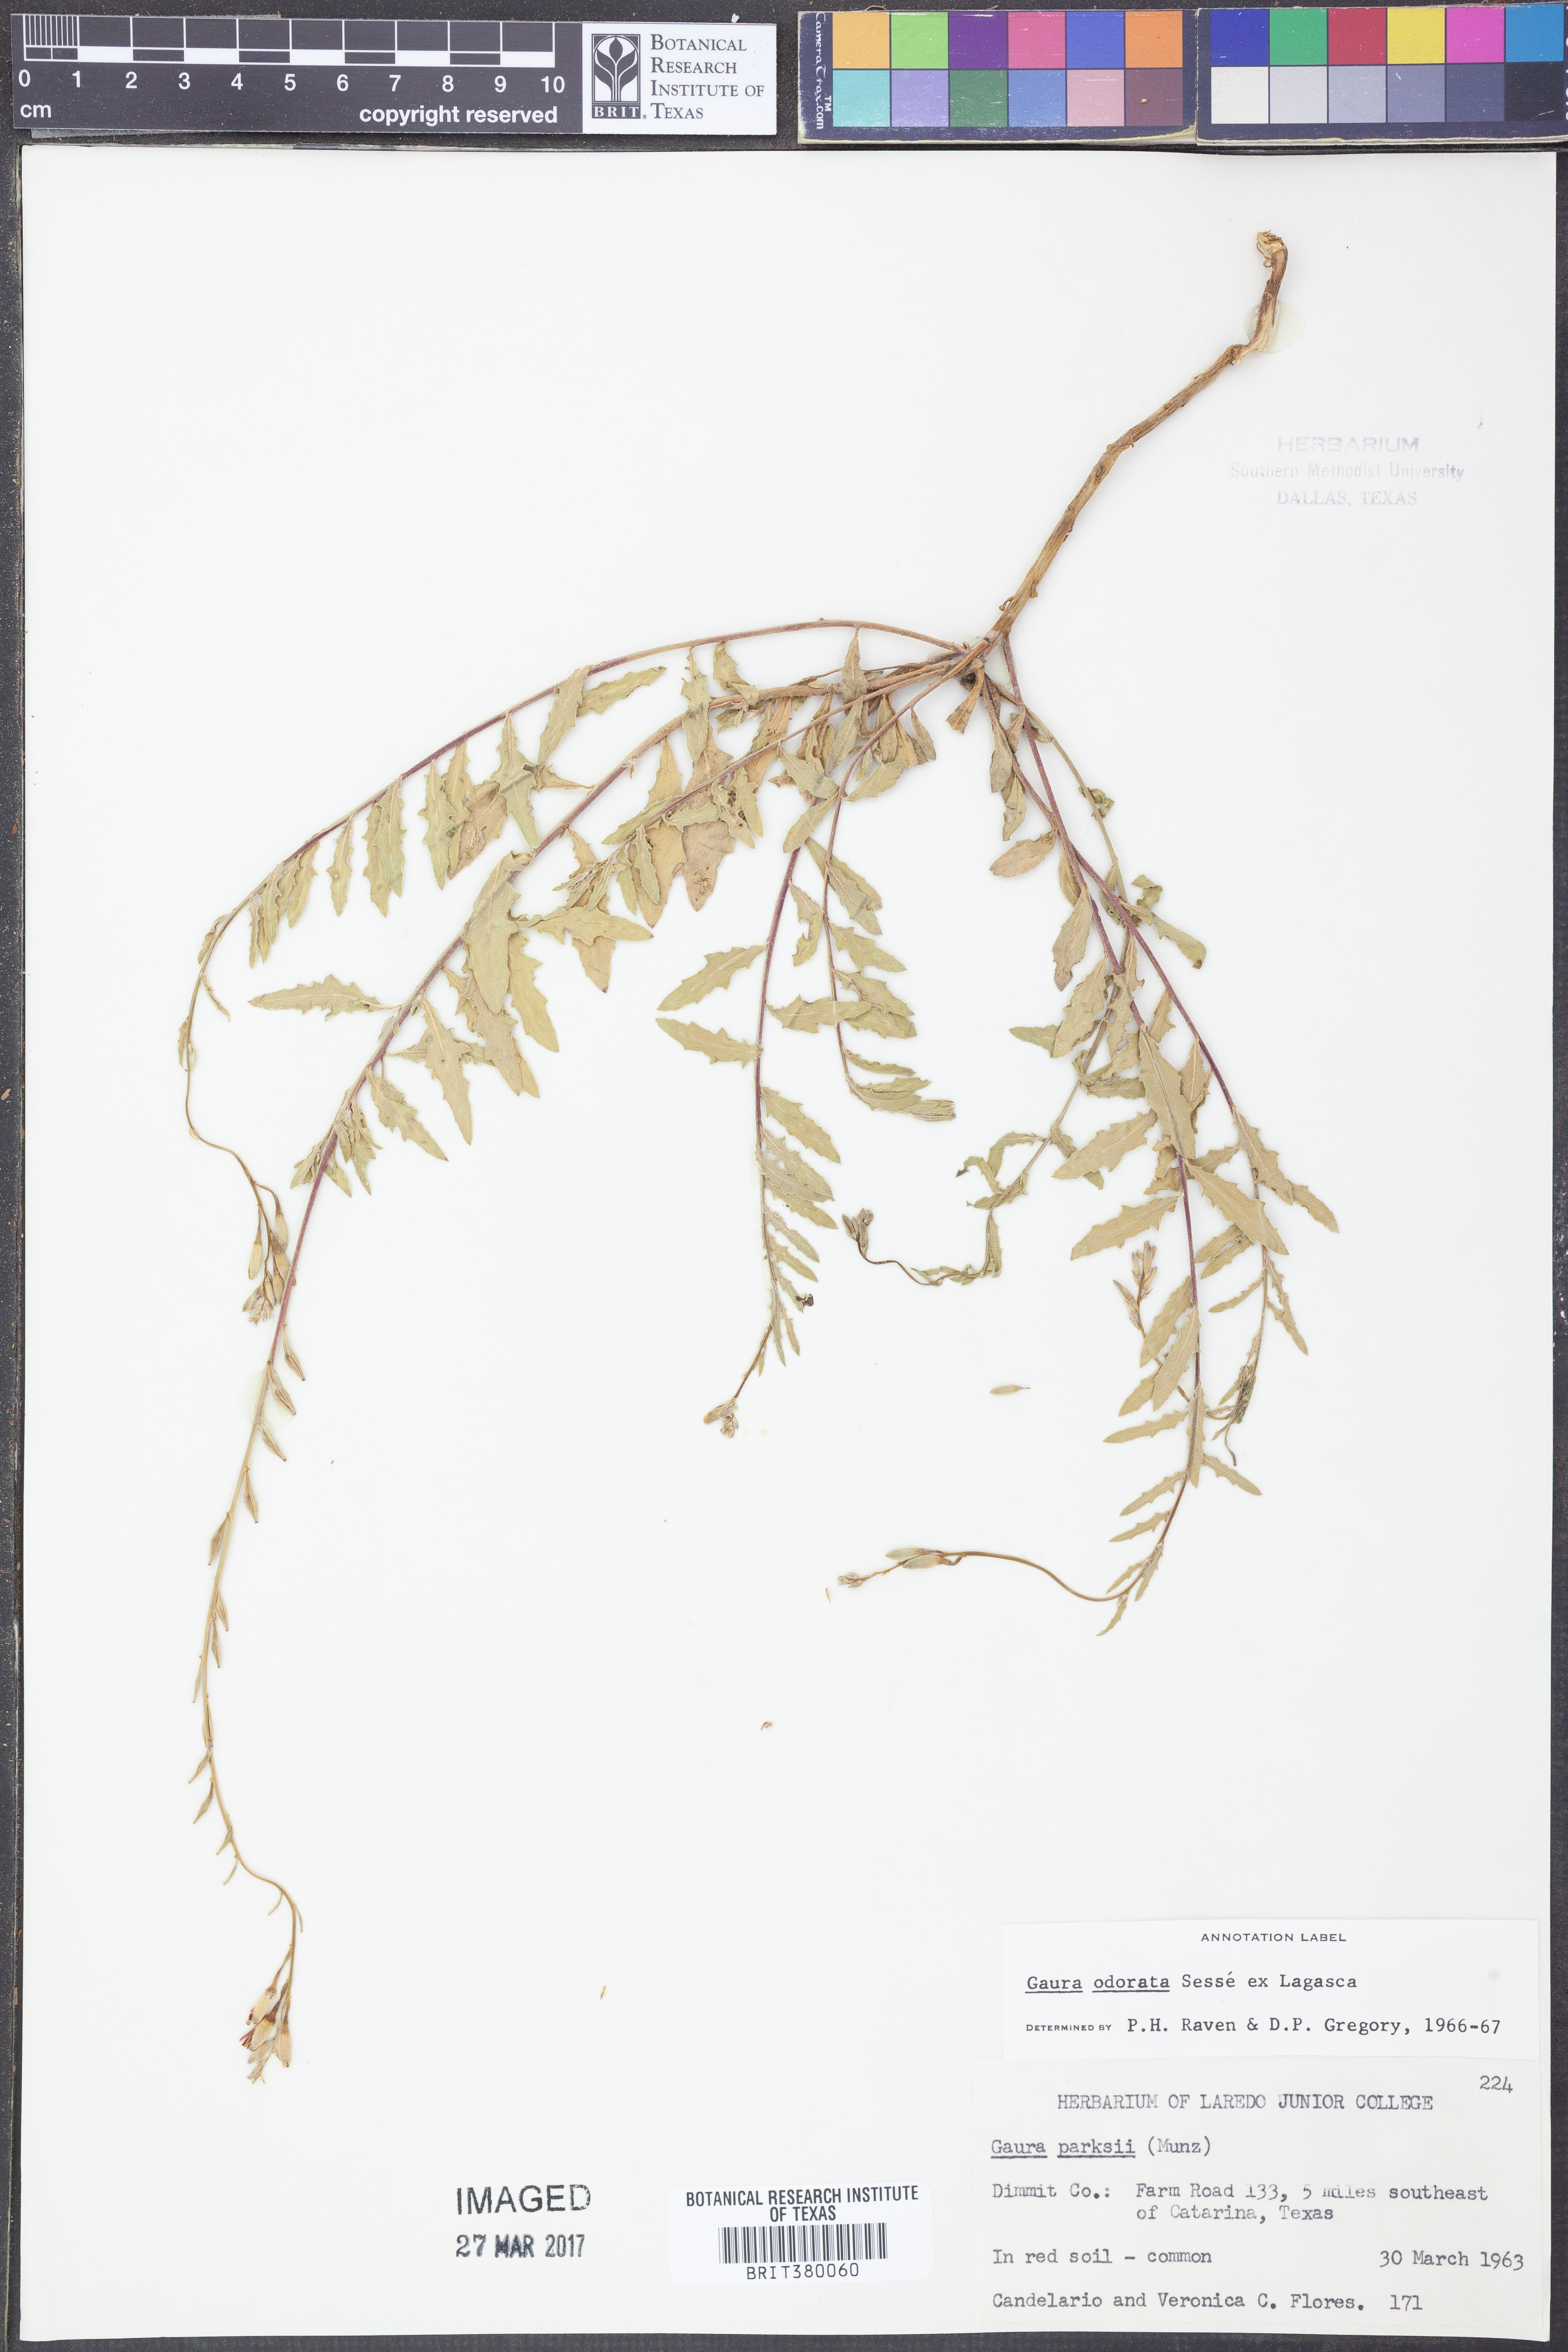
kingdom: Plantae
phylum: Tracheophyta
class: Magnoliopsida
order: Myrtales
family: Onagraceae
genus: Oenothera
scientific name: Oenothera
